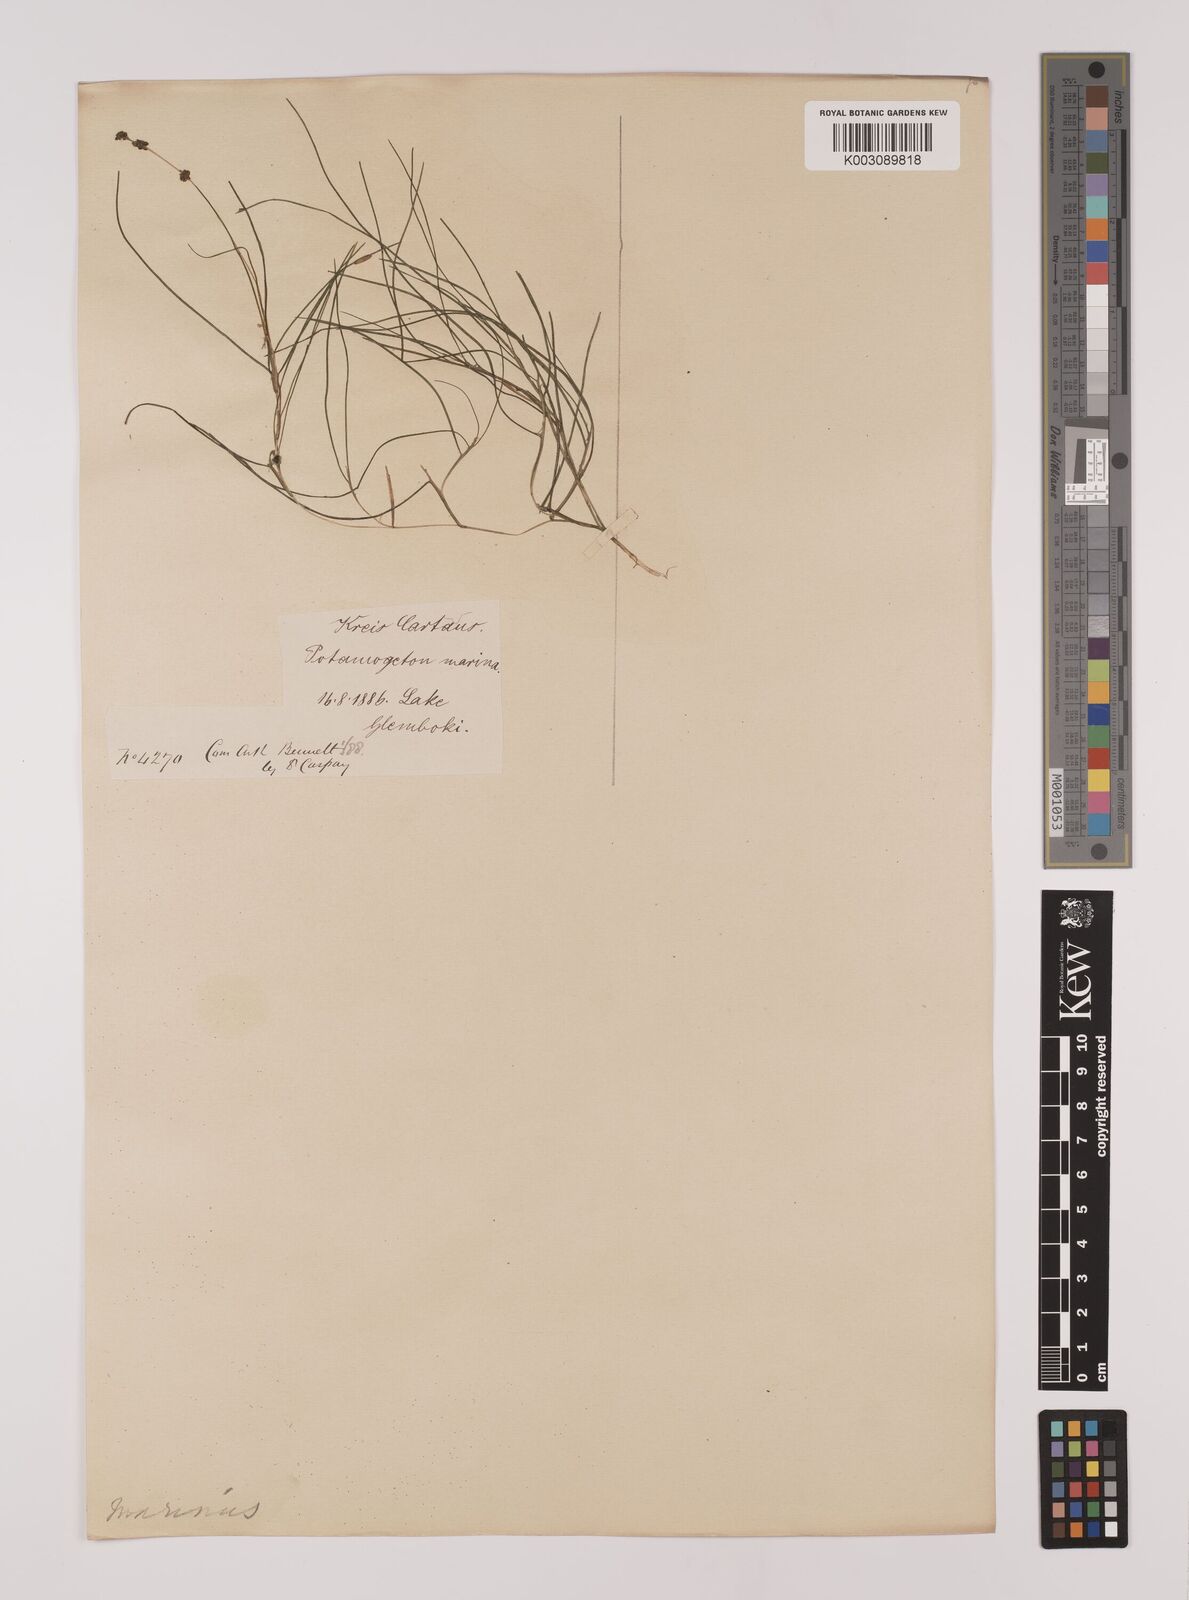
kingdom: Plantae
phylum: Tracheophyta
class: Liliopsida
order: Alismatales
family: Potamogetonaceae
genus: Stuckenia
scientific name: Stuckenia pectinata
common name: Sago pondweed
